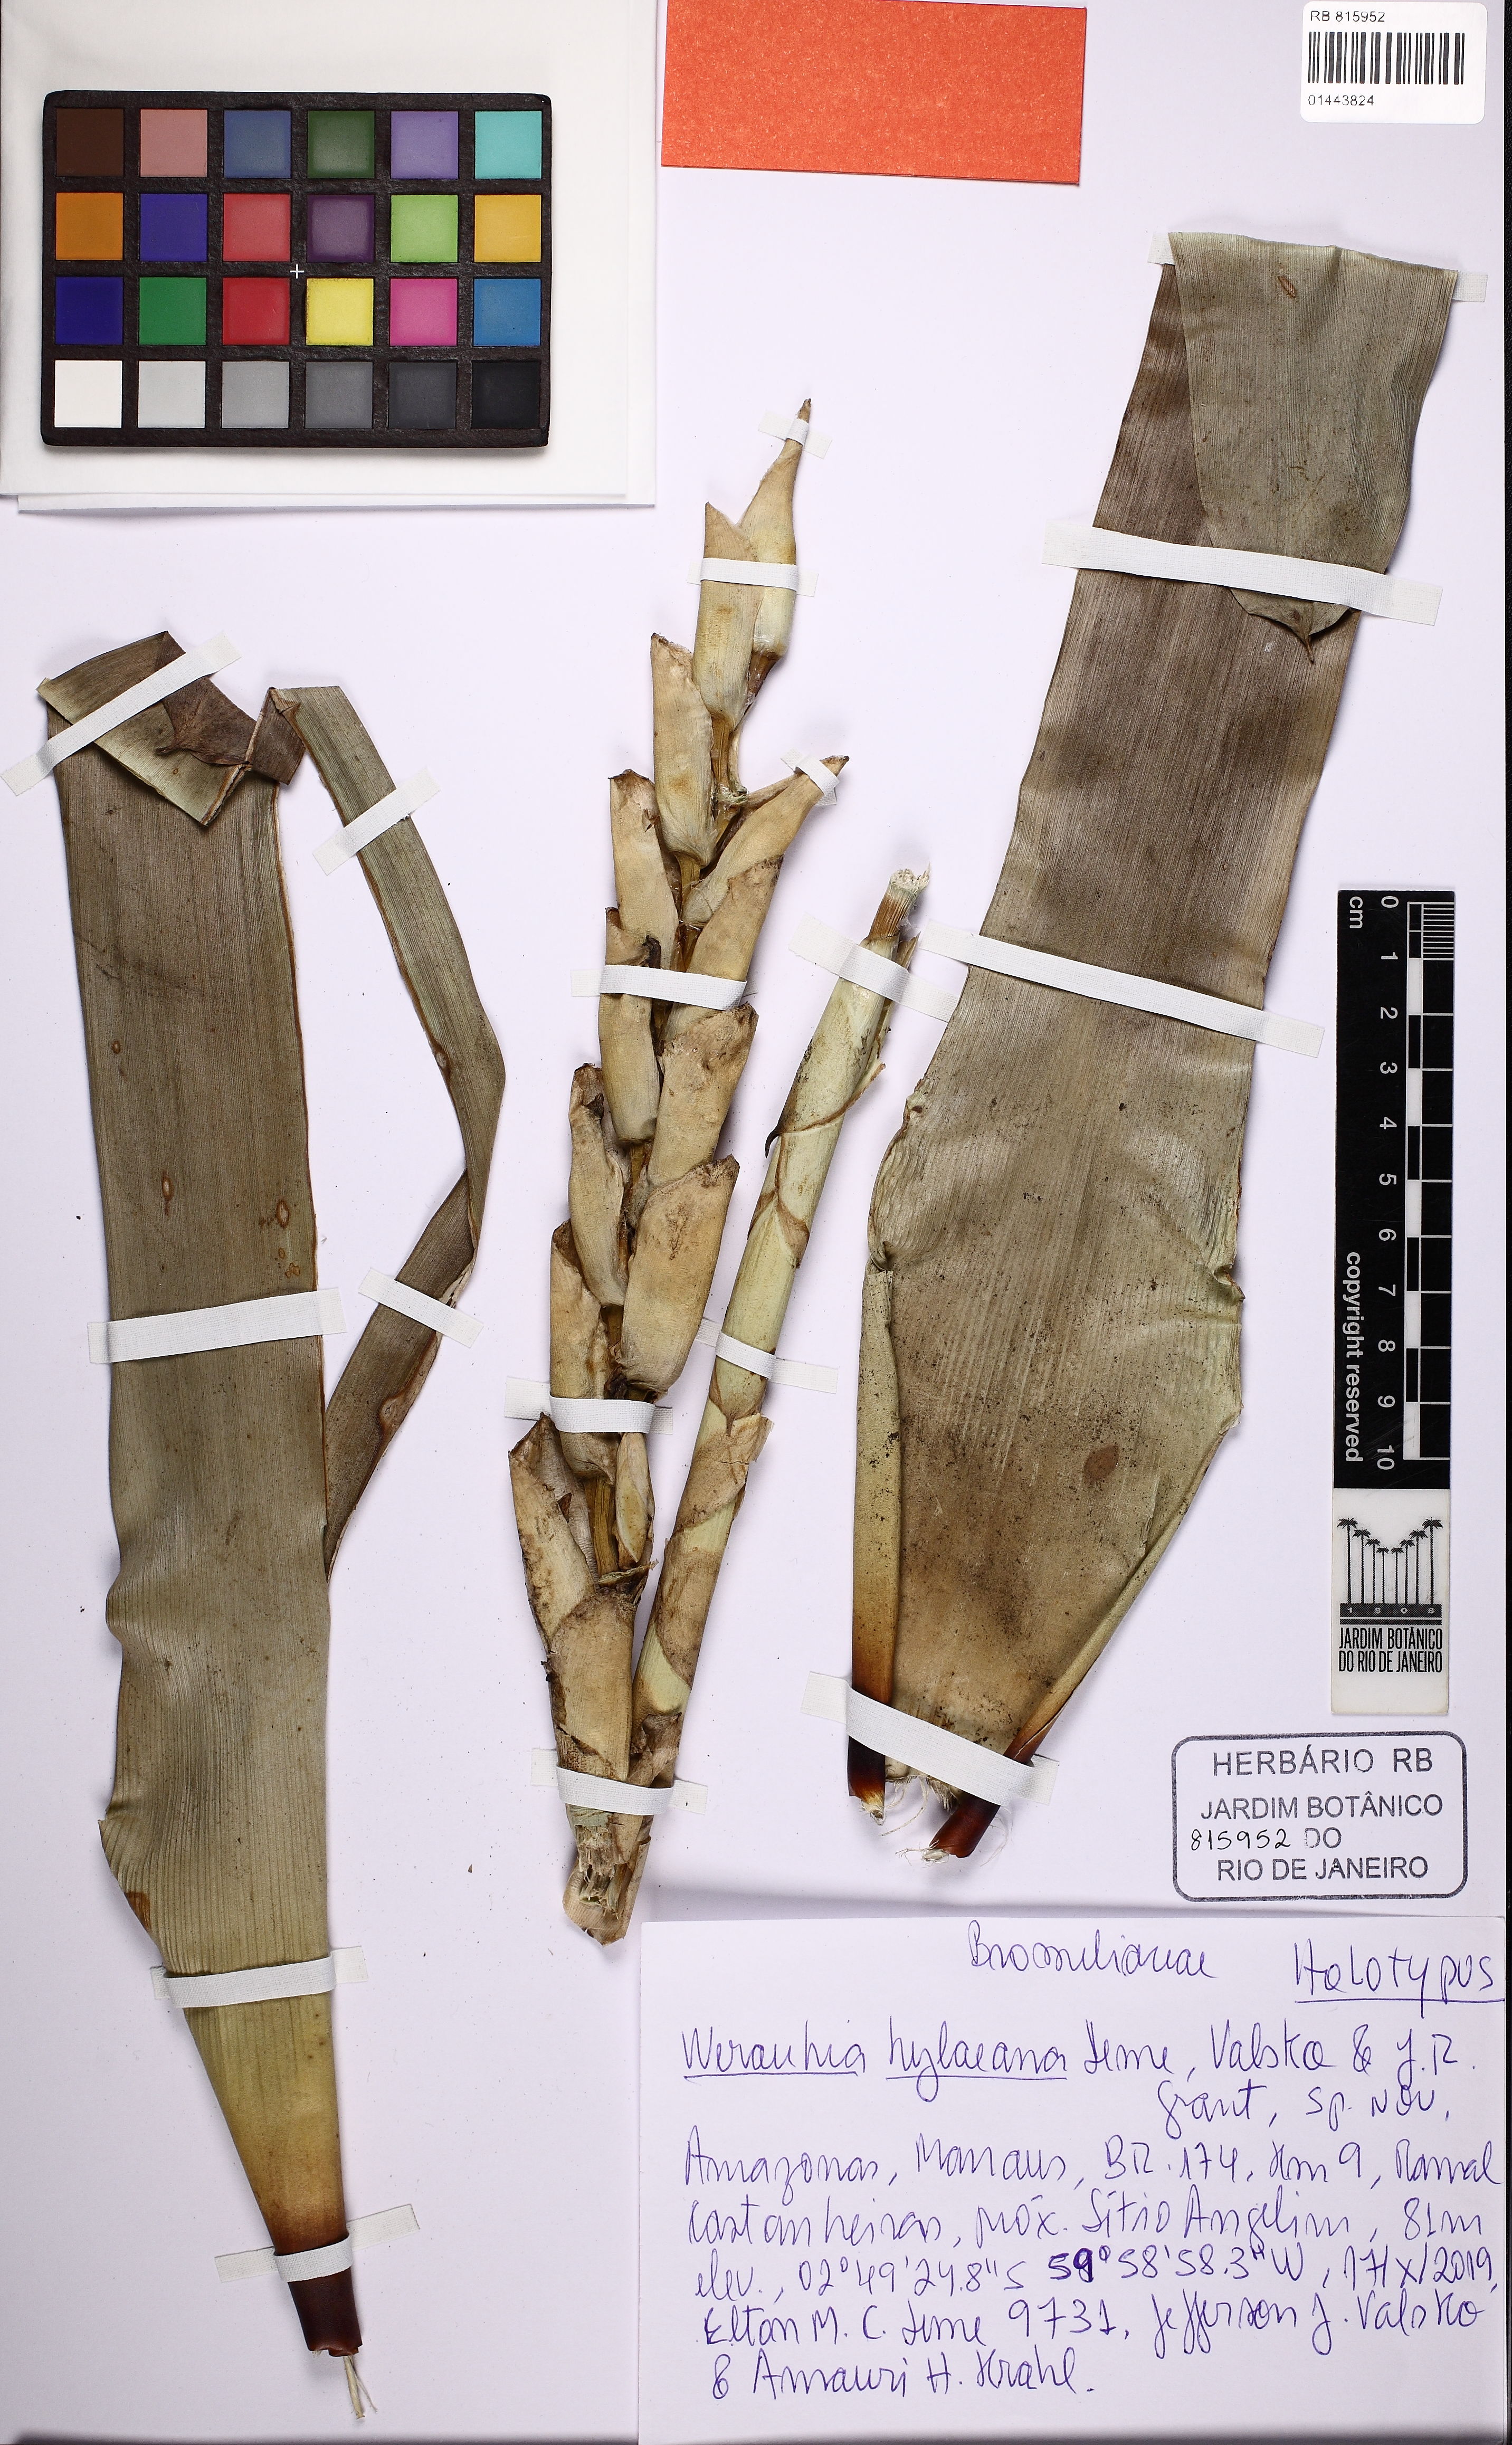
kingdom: Plantae
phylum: Tracheophyta
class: Liliopsida
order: Poales
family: Bromeliaceae
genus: Werauhia
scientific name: Werauhia hylaeana
